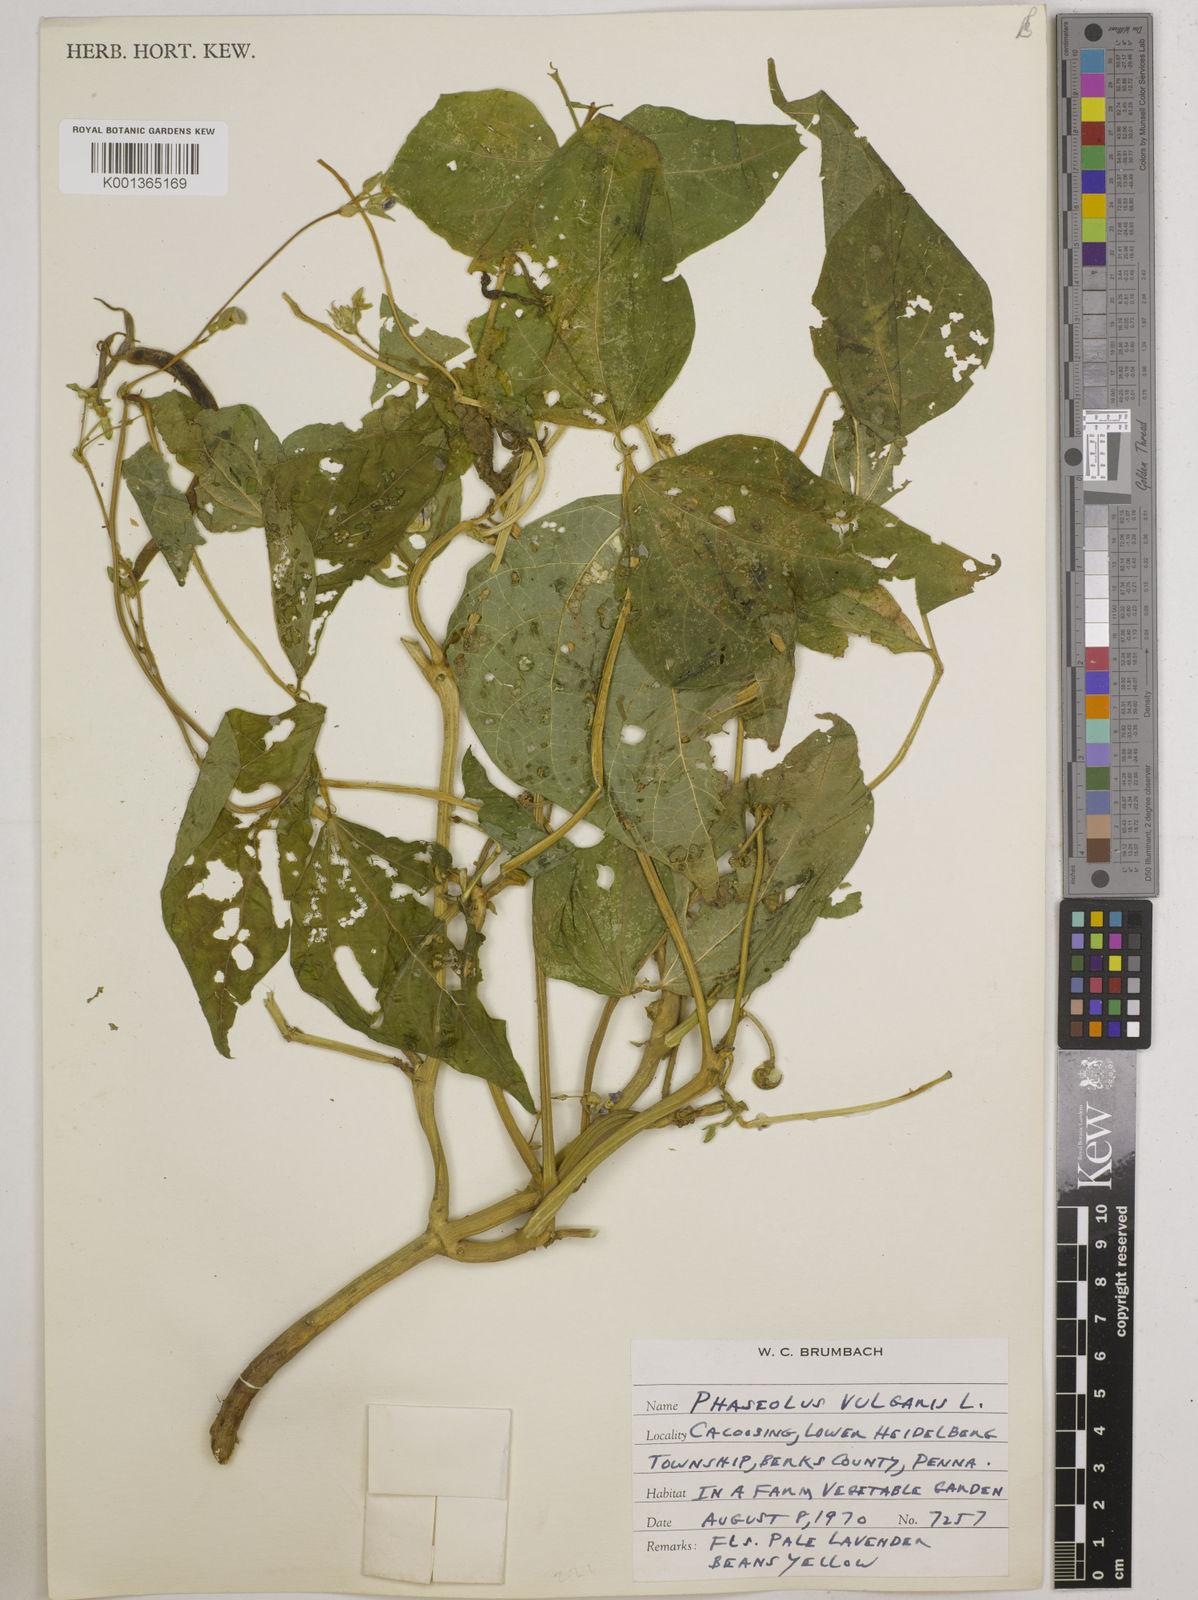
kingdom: Plantae
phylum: Tracheophyta
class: Magnoliopsida
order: Fabales
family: Fabaceae
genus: Phaseolus
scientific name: Phaseolus vulgaris
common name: Bean
